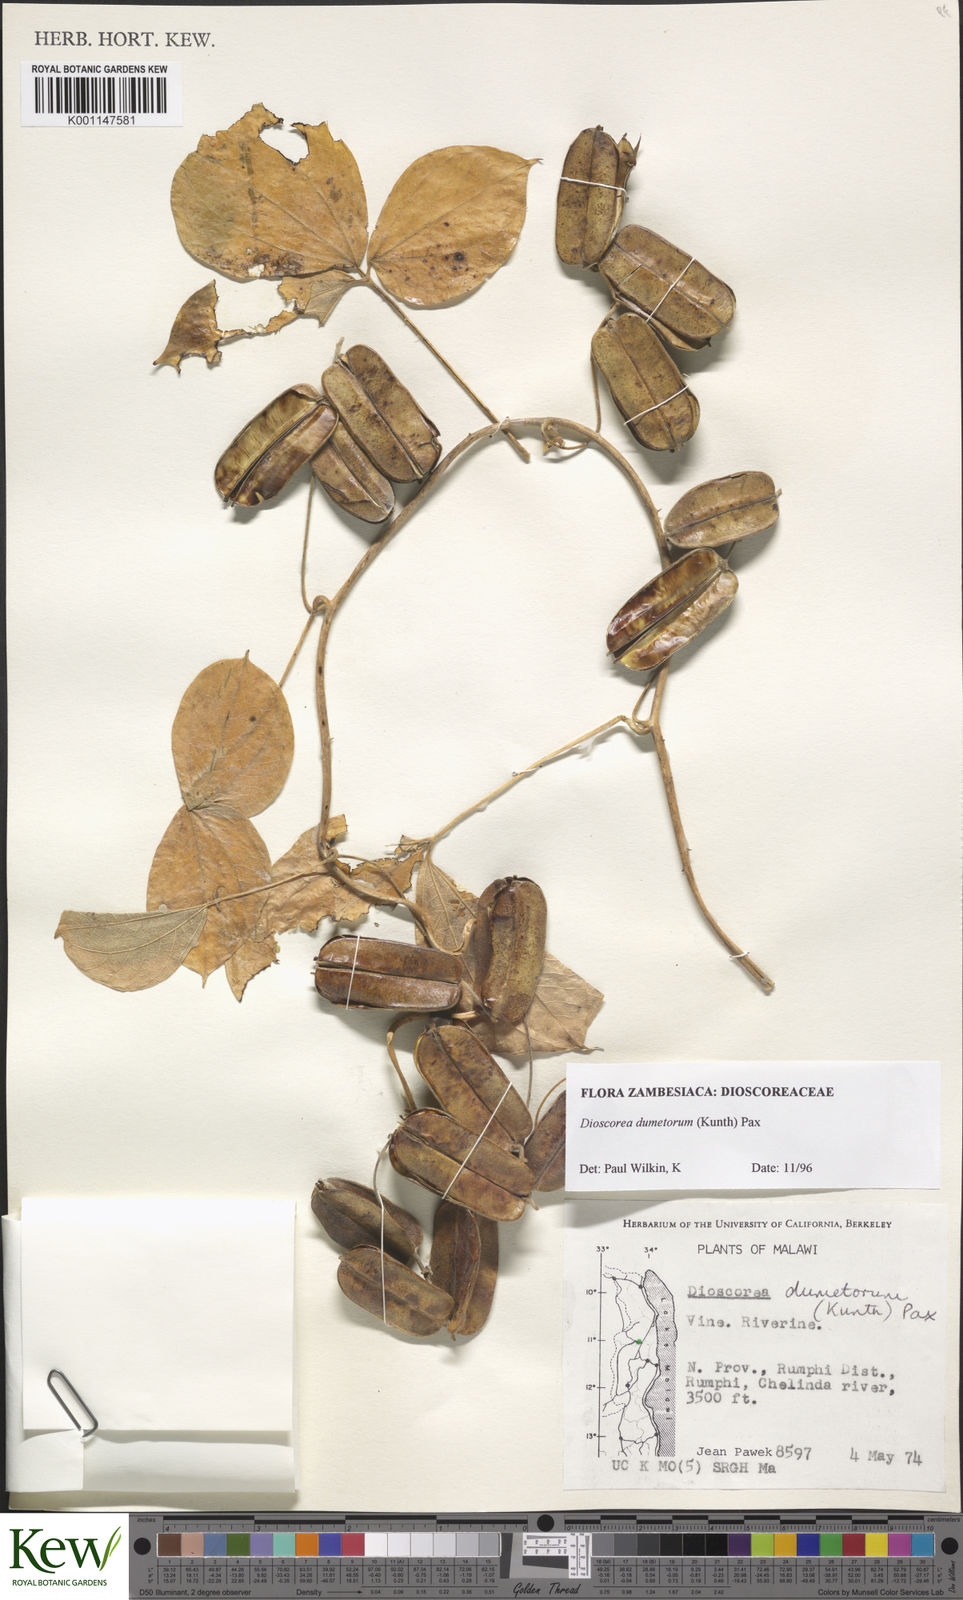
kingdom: Plantae
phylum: Tracheophyta
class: Liliopsida
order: Dioscoreales
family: Dioscoreaceae
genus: Dioscorea
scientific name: Dioscorea dumetorum
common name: African bitter yam
